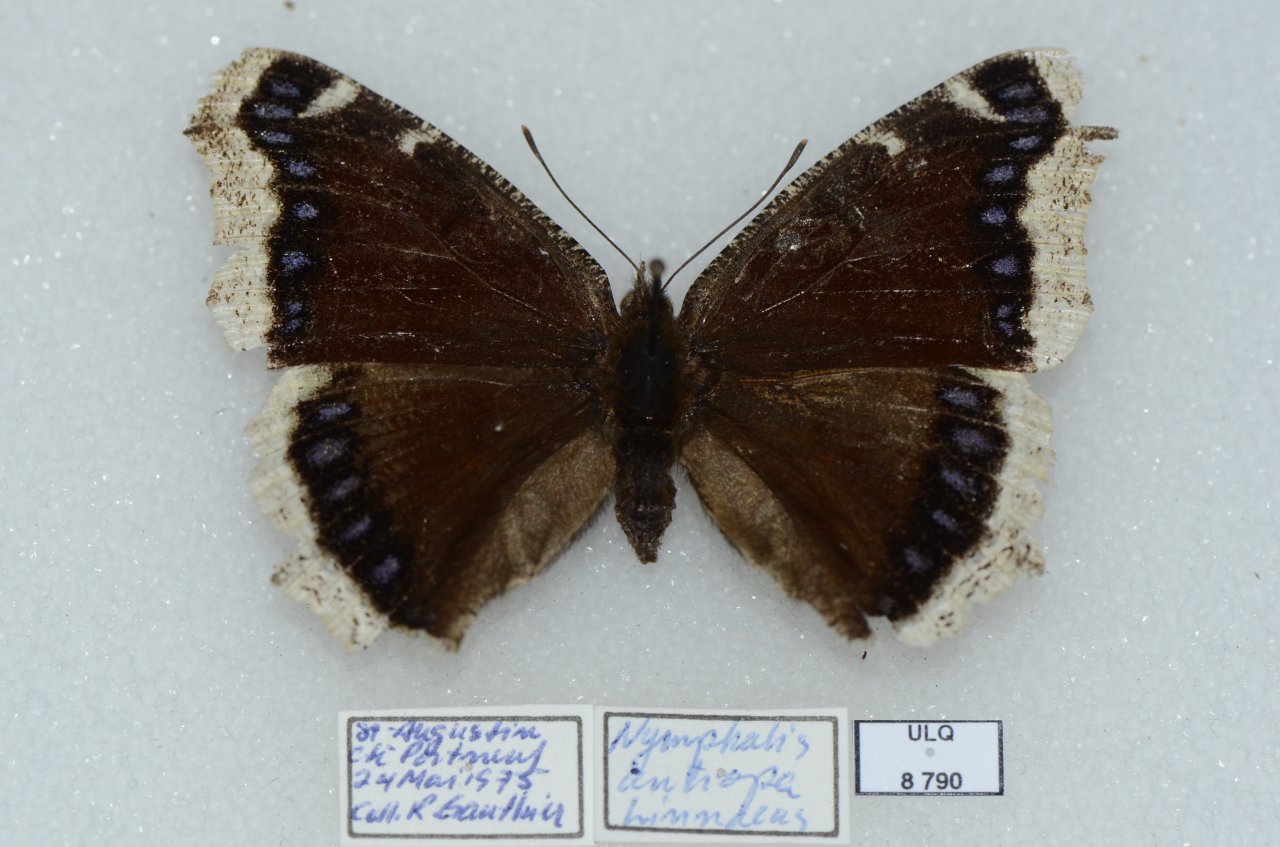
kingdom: Animalia
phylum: Arthropoda
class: Insecta
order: Lepidoptera
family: Nymphalidae
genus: Nymphalis
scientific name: Nymphalis antiopa
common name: Mourning Cloak
